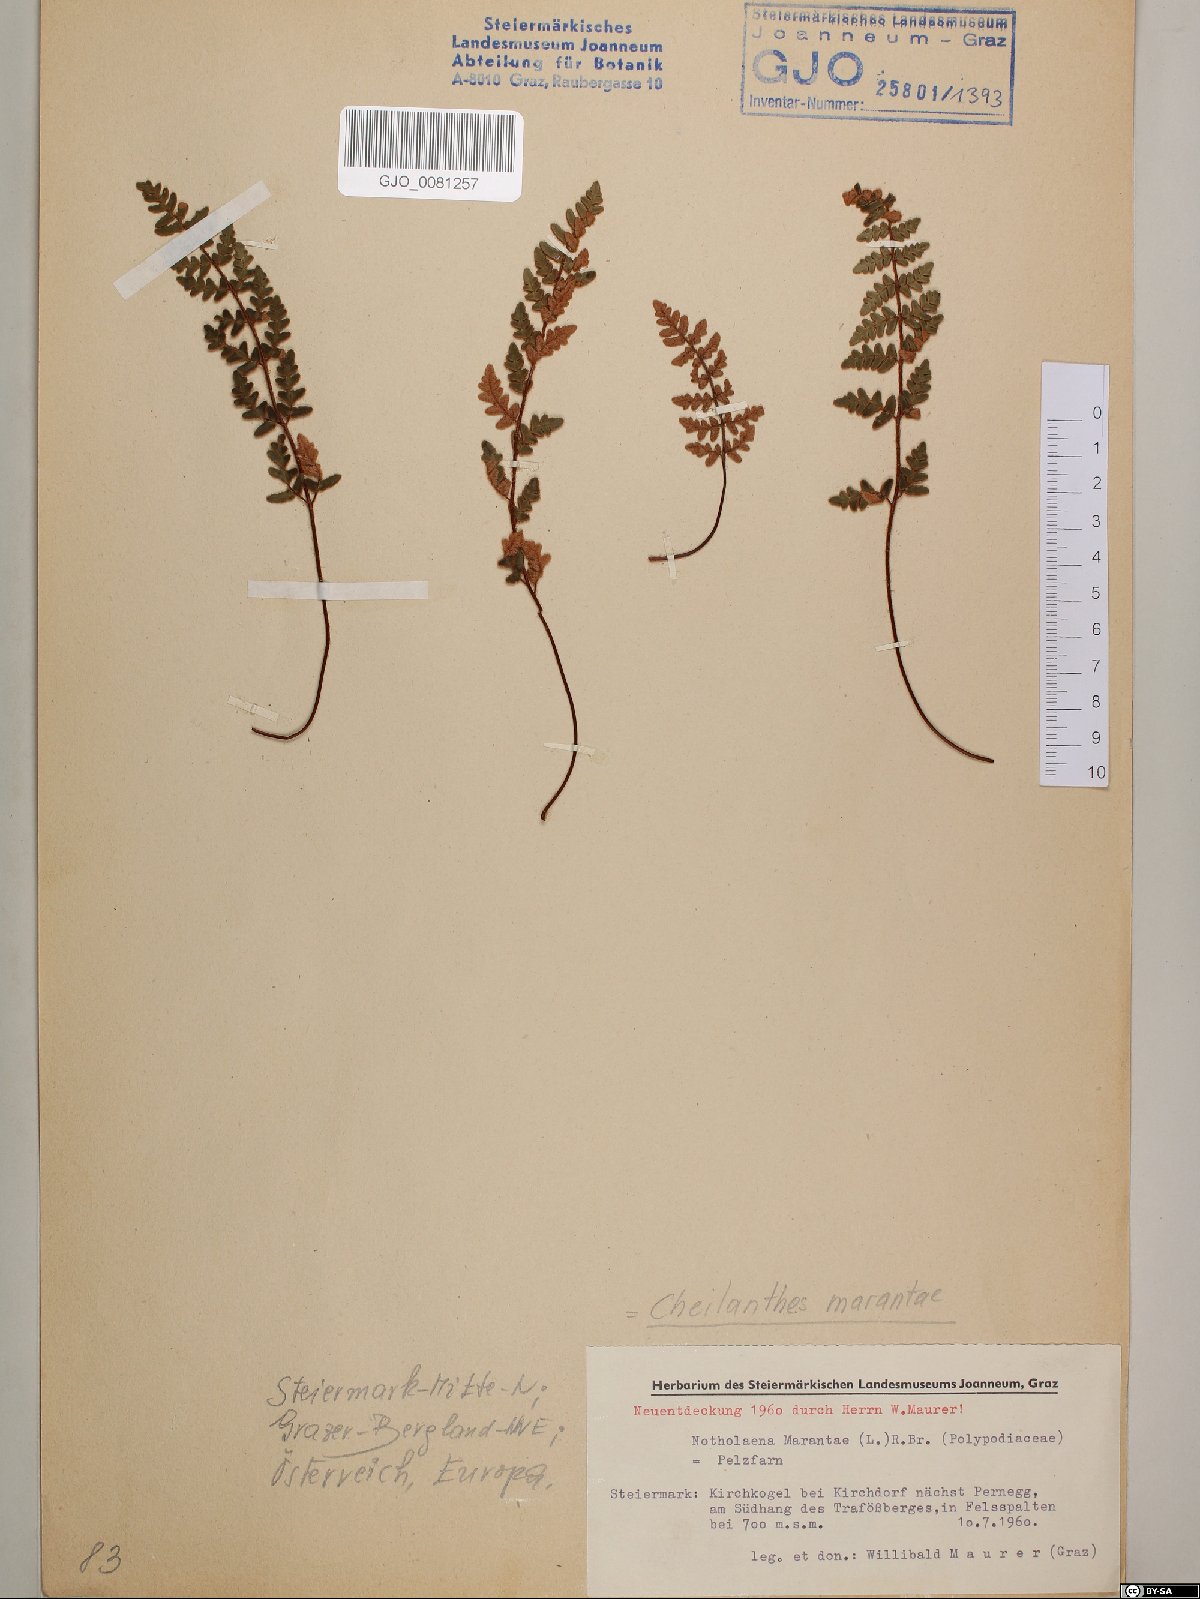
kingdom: Plantae
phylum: Tracheophyta
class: Polypodiopsida
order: Polypodiales
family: Pteridaceae
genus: Paragymnopteris
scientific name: Paragymnopteris marantae
